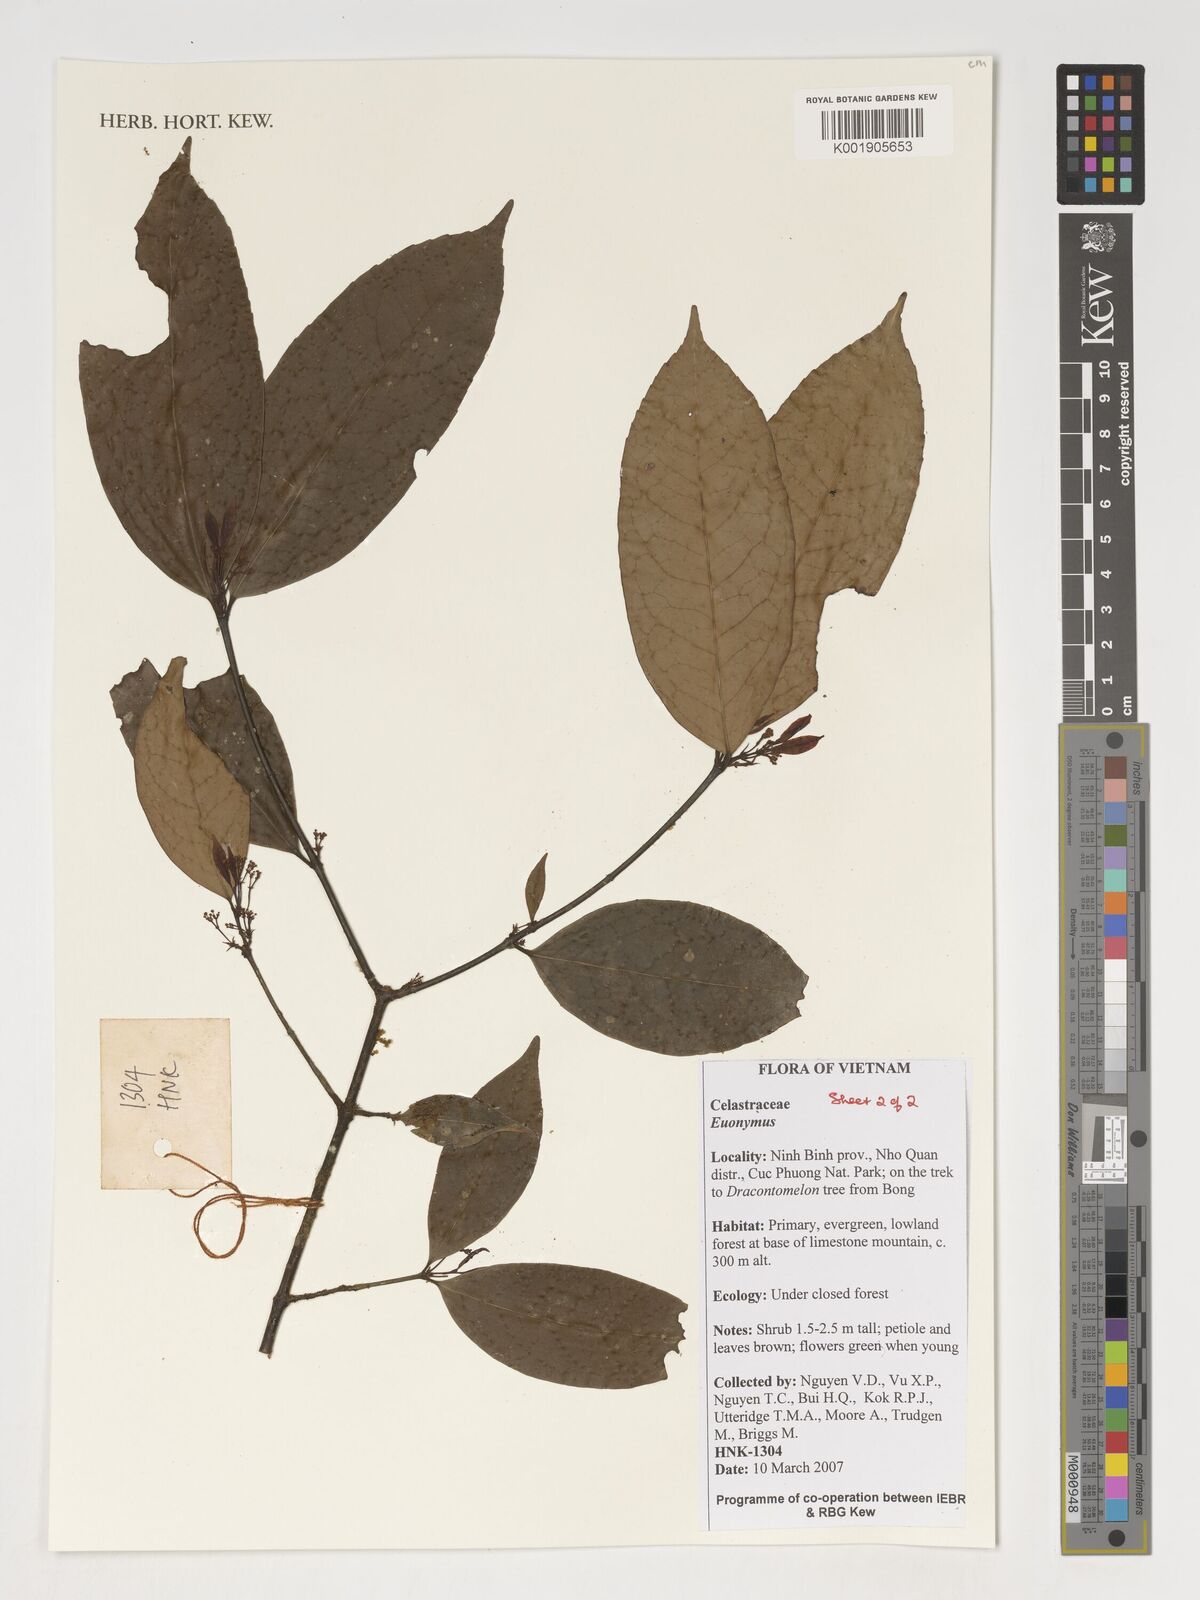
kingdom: Plantae
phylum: Tracheophyta
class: Magnoliopsida
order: Celastrales
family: Celastraceae
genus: Euonymus
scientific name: Euonymus
